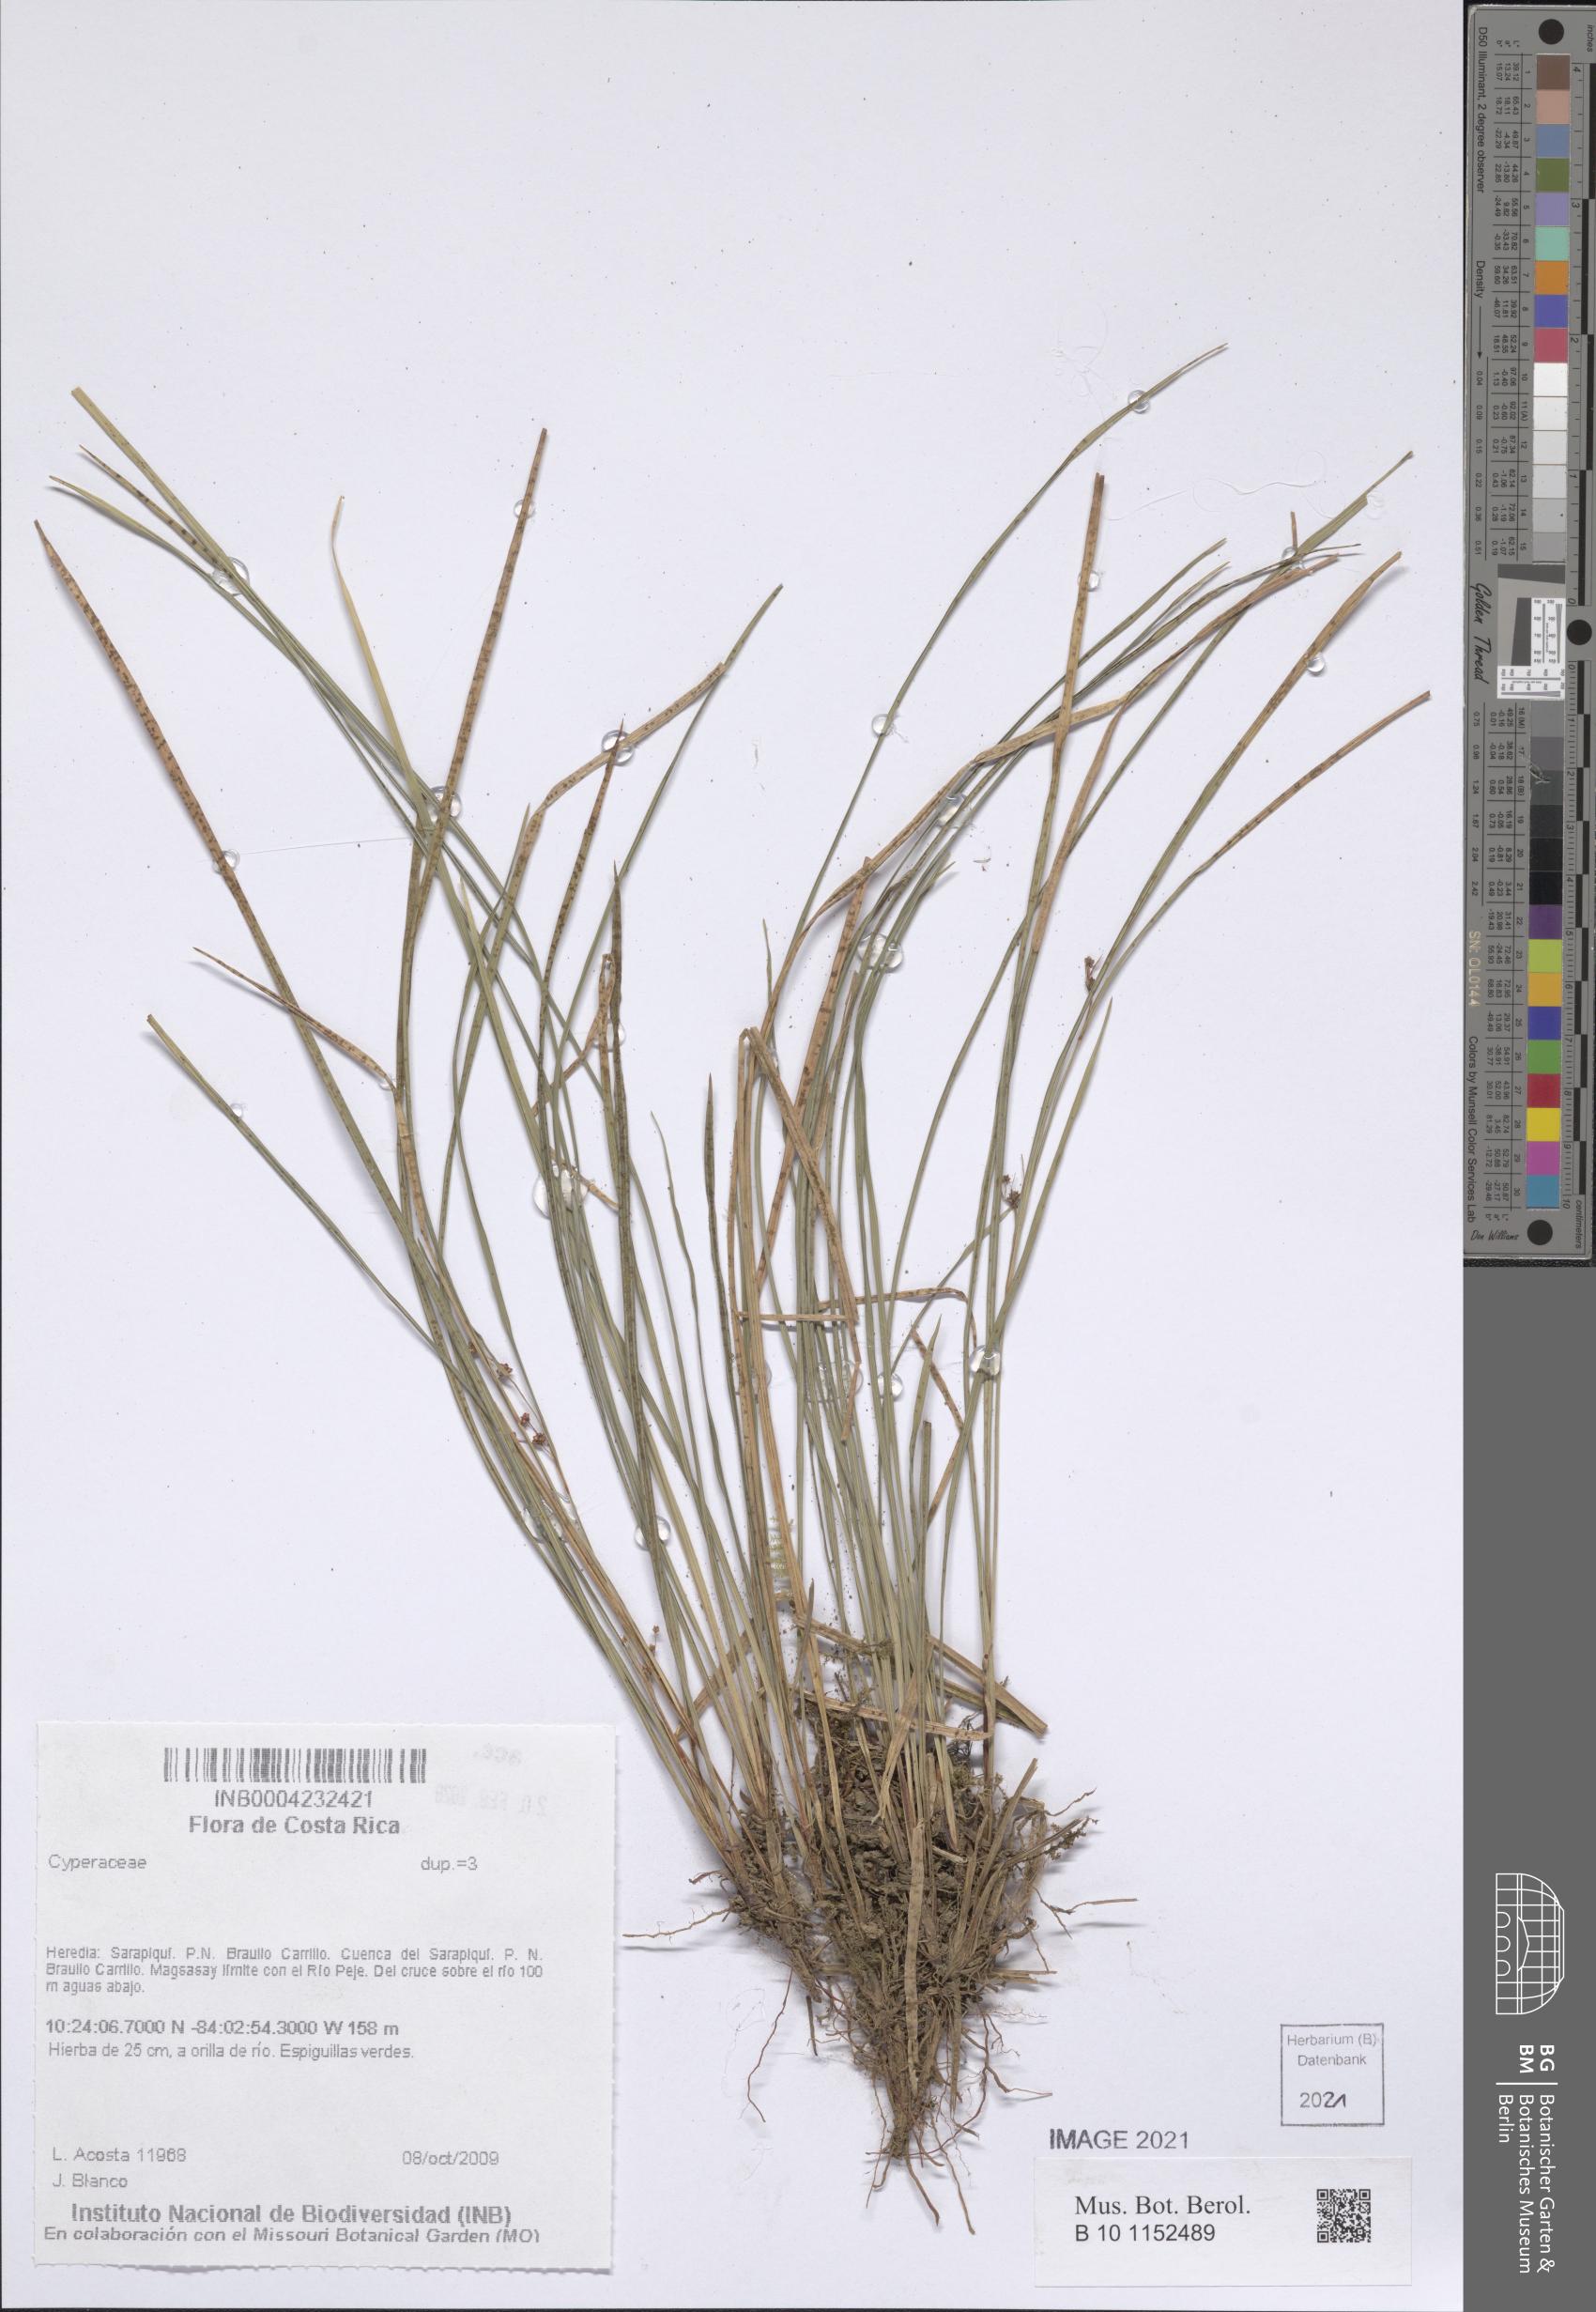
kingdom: Plantae
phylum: Tracheophyta
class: Liliopsida
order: Poales
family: Cyperaceae
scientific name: Cyperaceae
